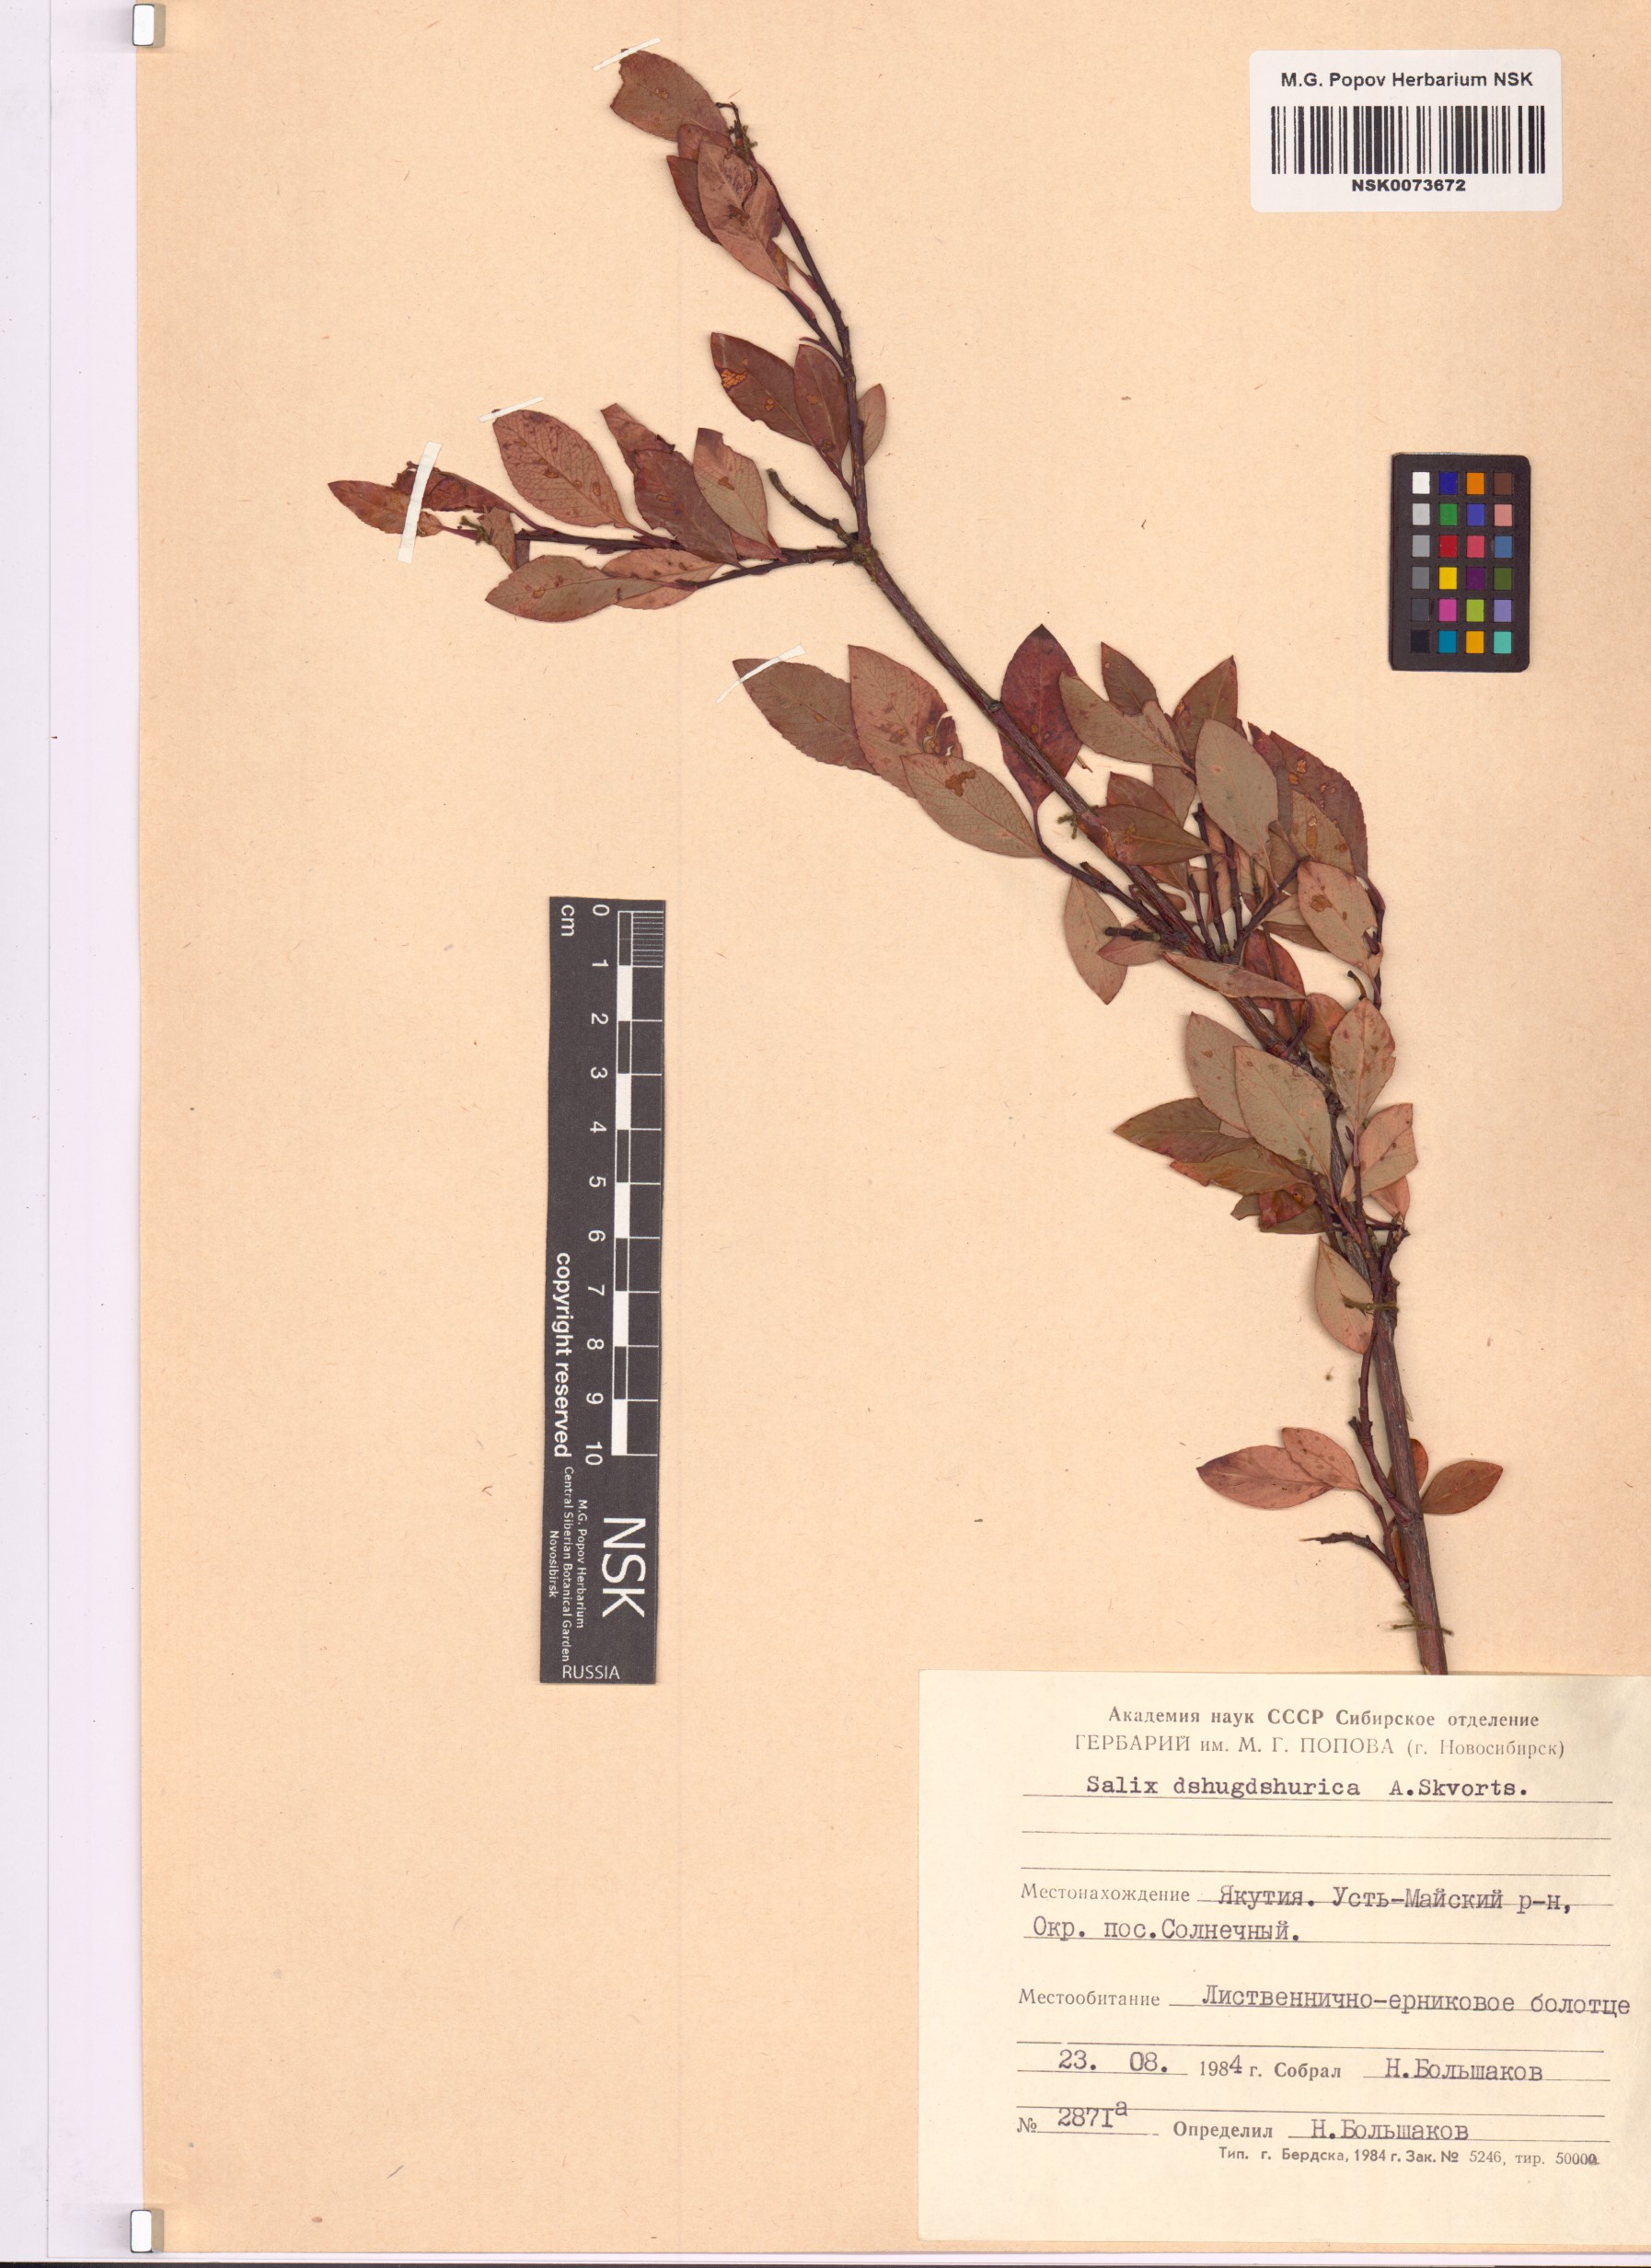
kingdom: Plantae
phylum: Tracheophyta
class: Magnoliopsida
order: Malpighiales
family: Salicaceae
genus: Salix
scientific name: Salix dshugdshurica
